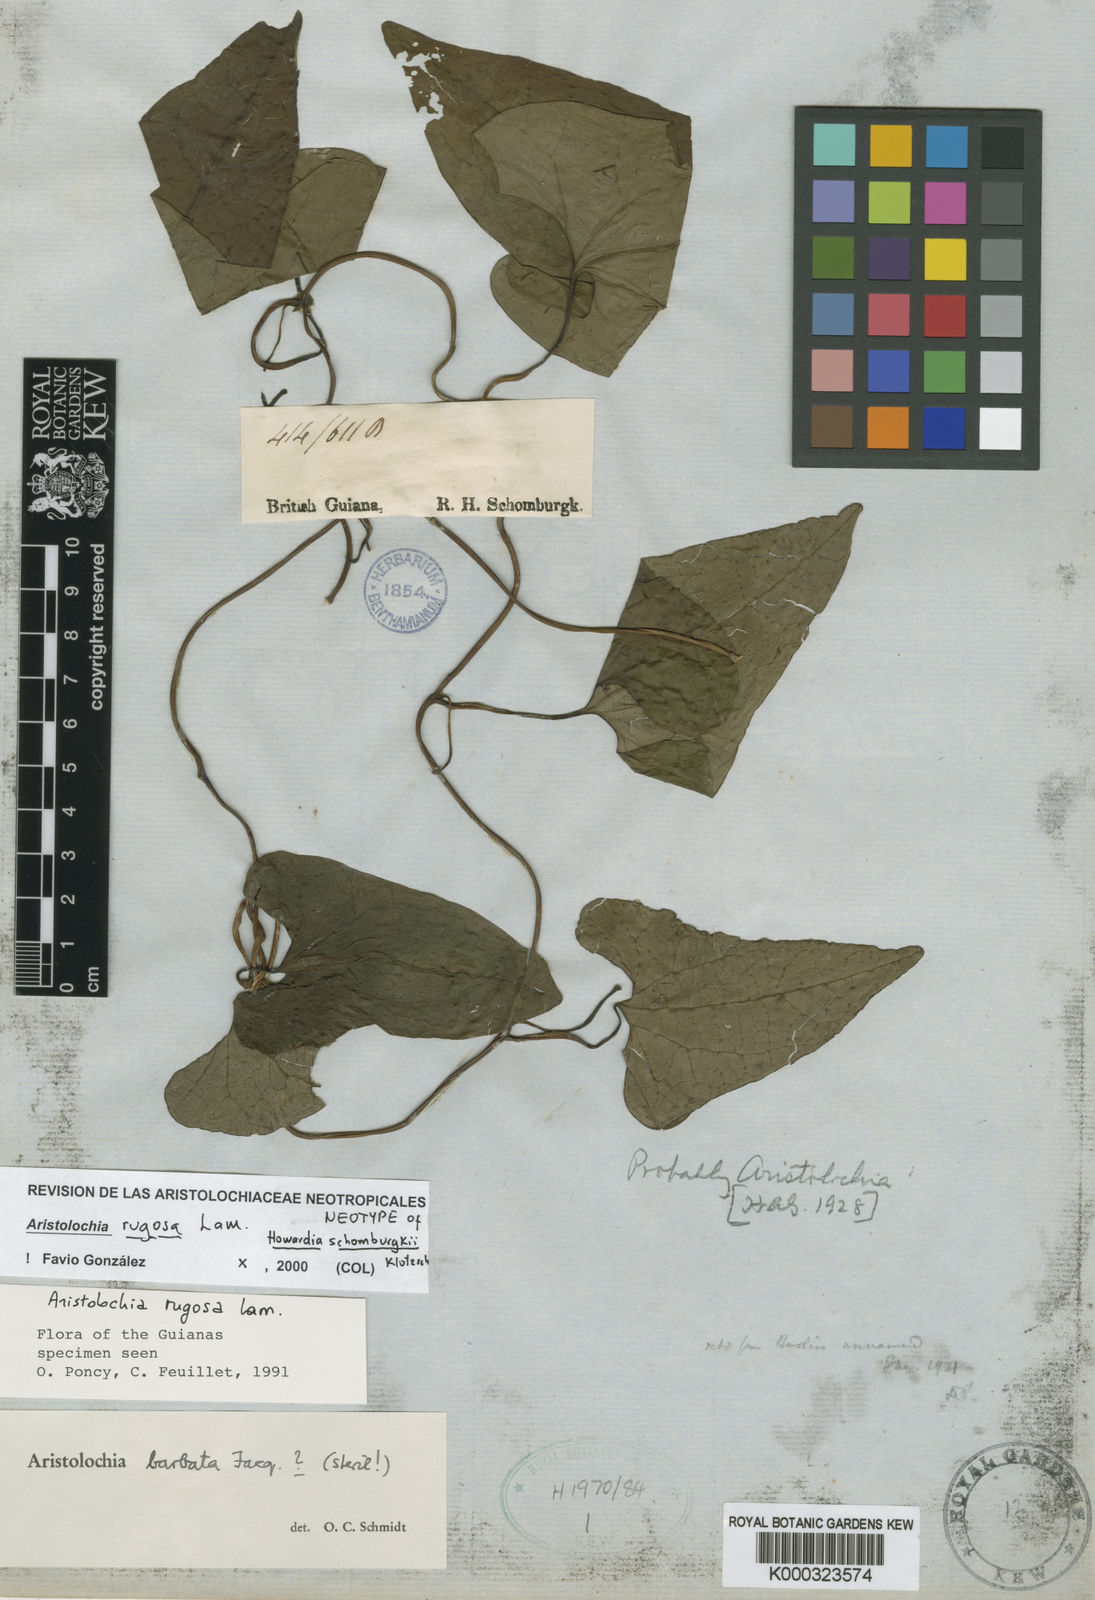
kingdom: Plantae
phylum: Tracheophyta
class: Magnoliopsida
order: Piperales
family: Aristolochiaceae
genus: Aristolochia
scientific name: Aristolochia rugosa
